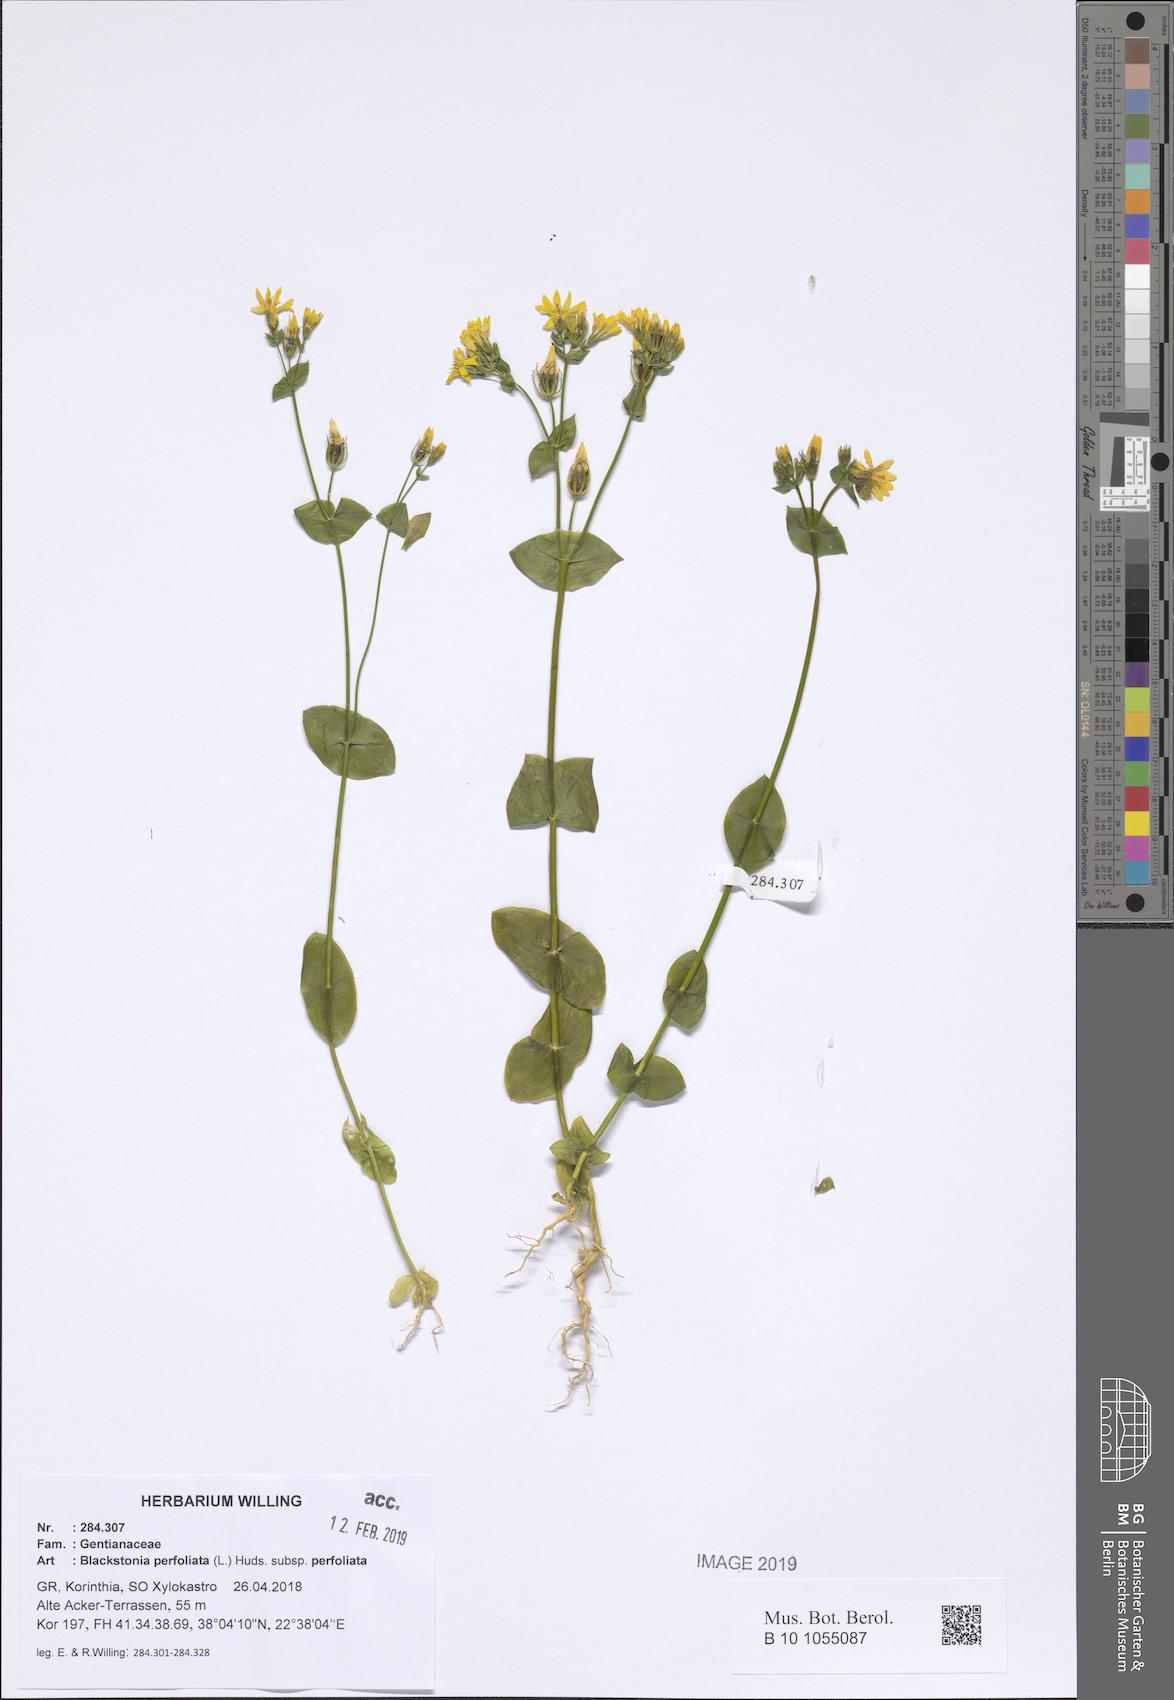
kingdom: Plantae
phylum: Tracheophyta
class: Magnoliopsida
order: Gentianales
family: Gentianaceae
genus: Blackstonia
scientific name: Blackstonia perfoliata
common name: Yellow-wort
